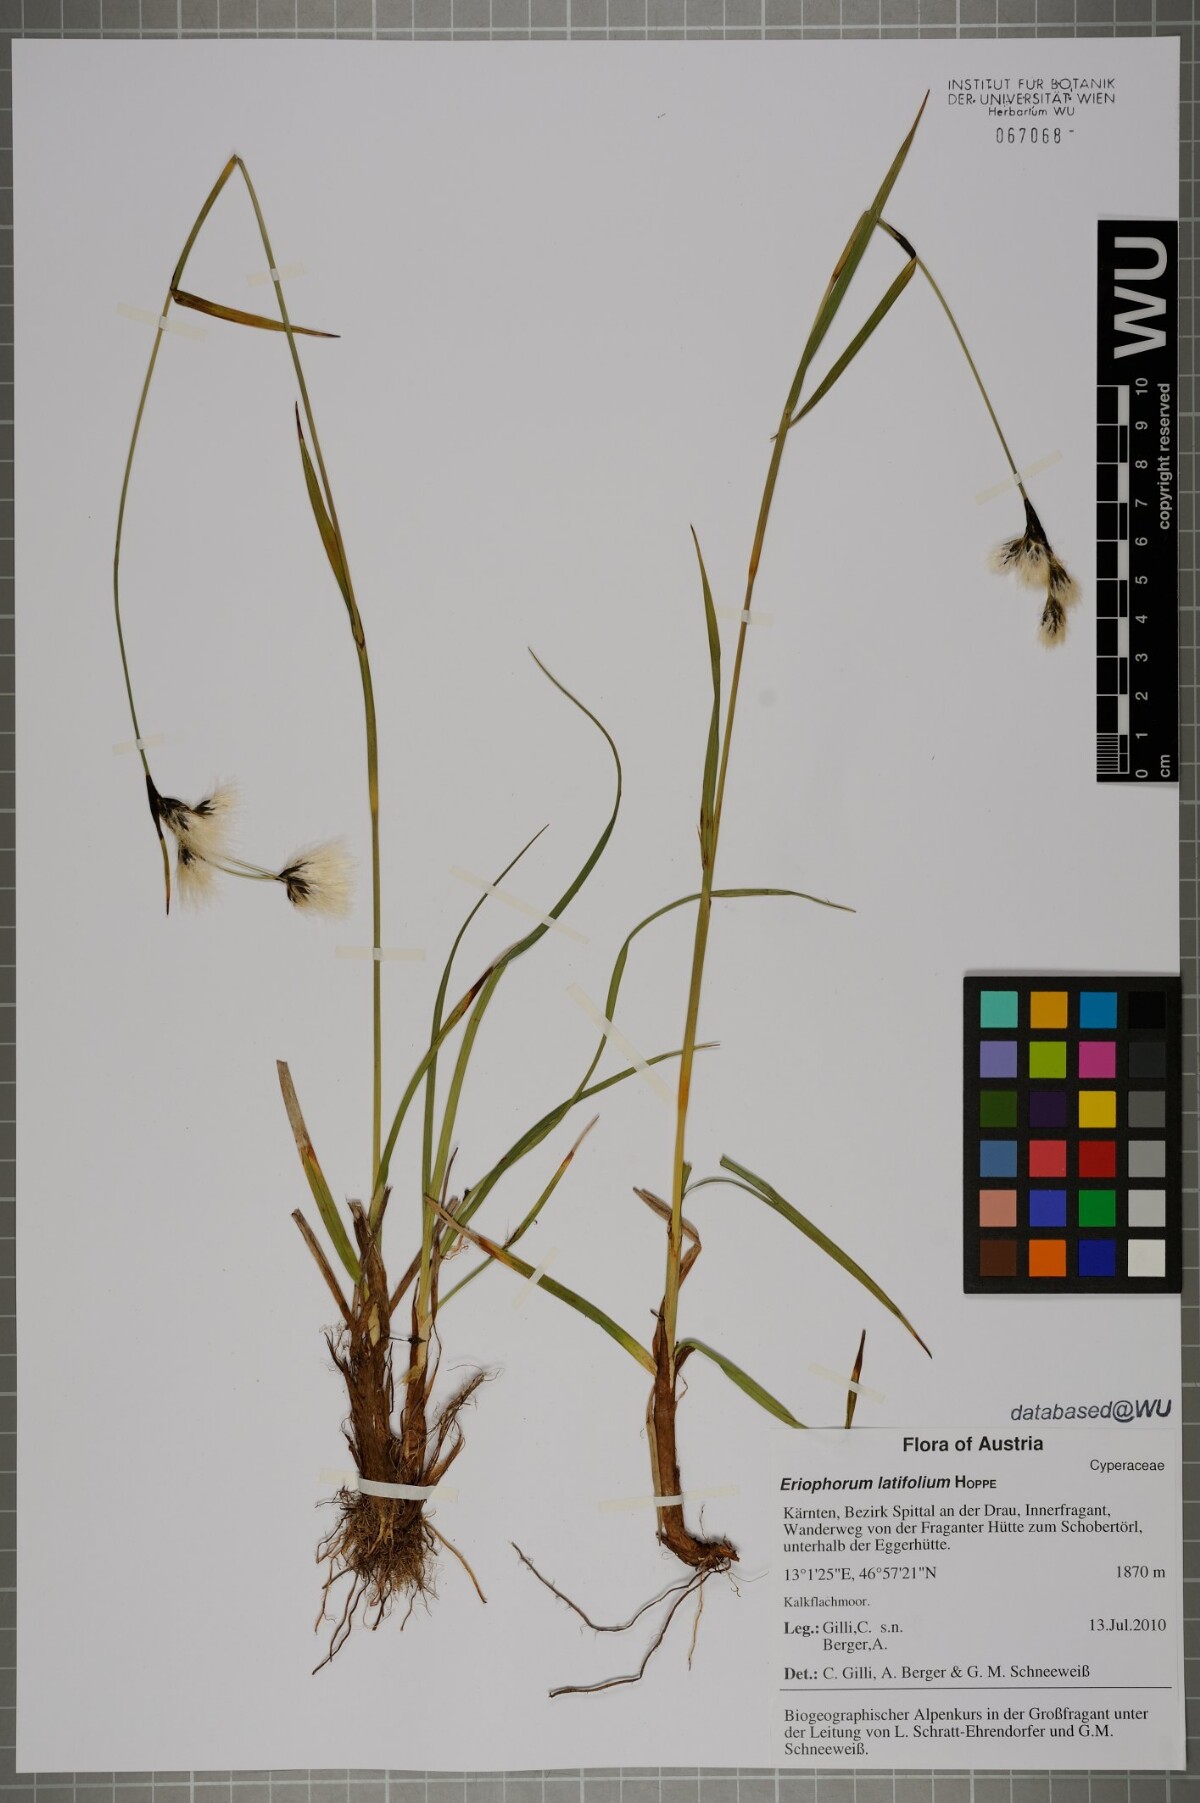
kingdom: Plantae
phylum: Tracheophyta
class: Liliopsida
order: Poales
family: Cyperaceae
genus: Eriophorum
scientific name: Eriophorum latifolium
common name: Broad-leaved cottongrass
